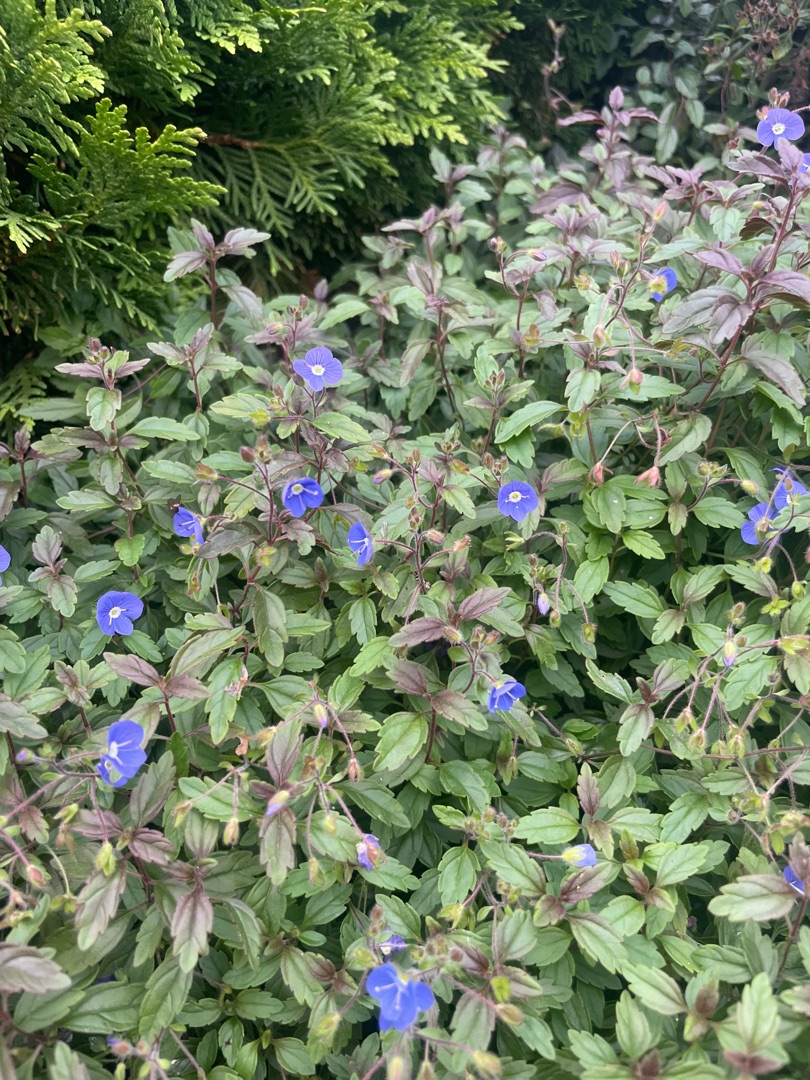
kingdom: Plantae
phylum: Tracheophyta
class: Magnoliopsida
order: Lamiales
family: Plantaginaceae
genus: Veronica
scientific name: Veronica chamaedrys
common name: Tveskægget ærenpris
